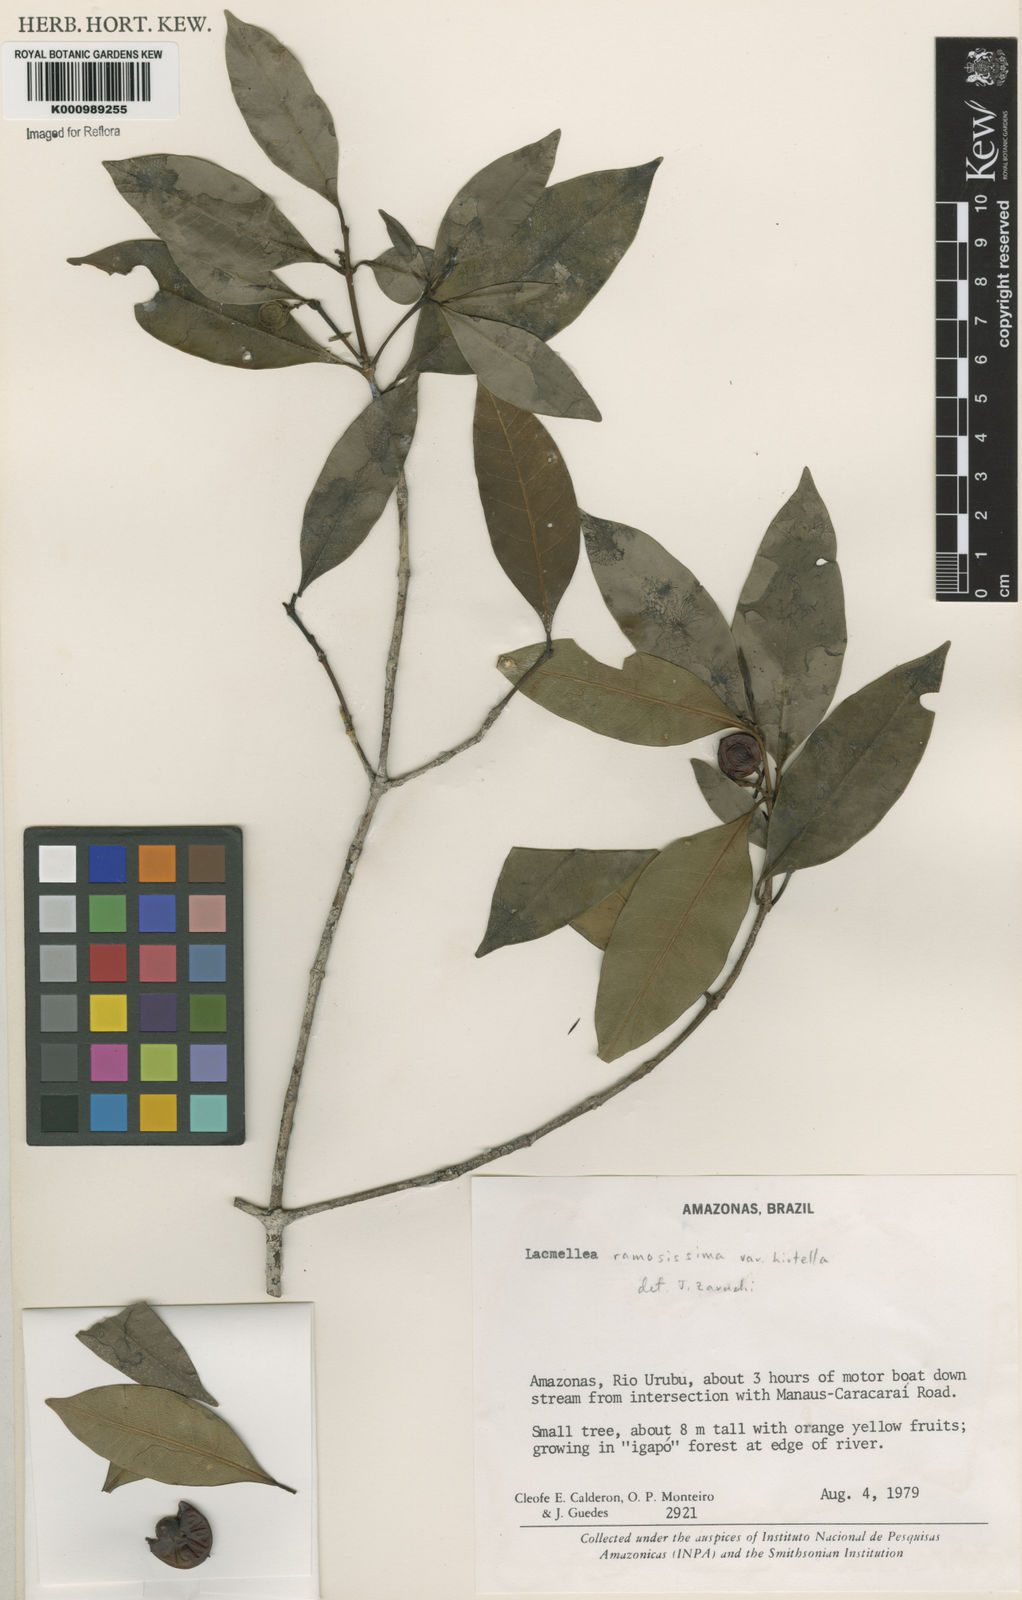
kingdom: Plantae
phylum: Tracheophyta
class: Magnoliopsida
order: Gentianales
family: Apocynaceae
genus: Lacmellea
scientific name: Lacmellea
